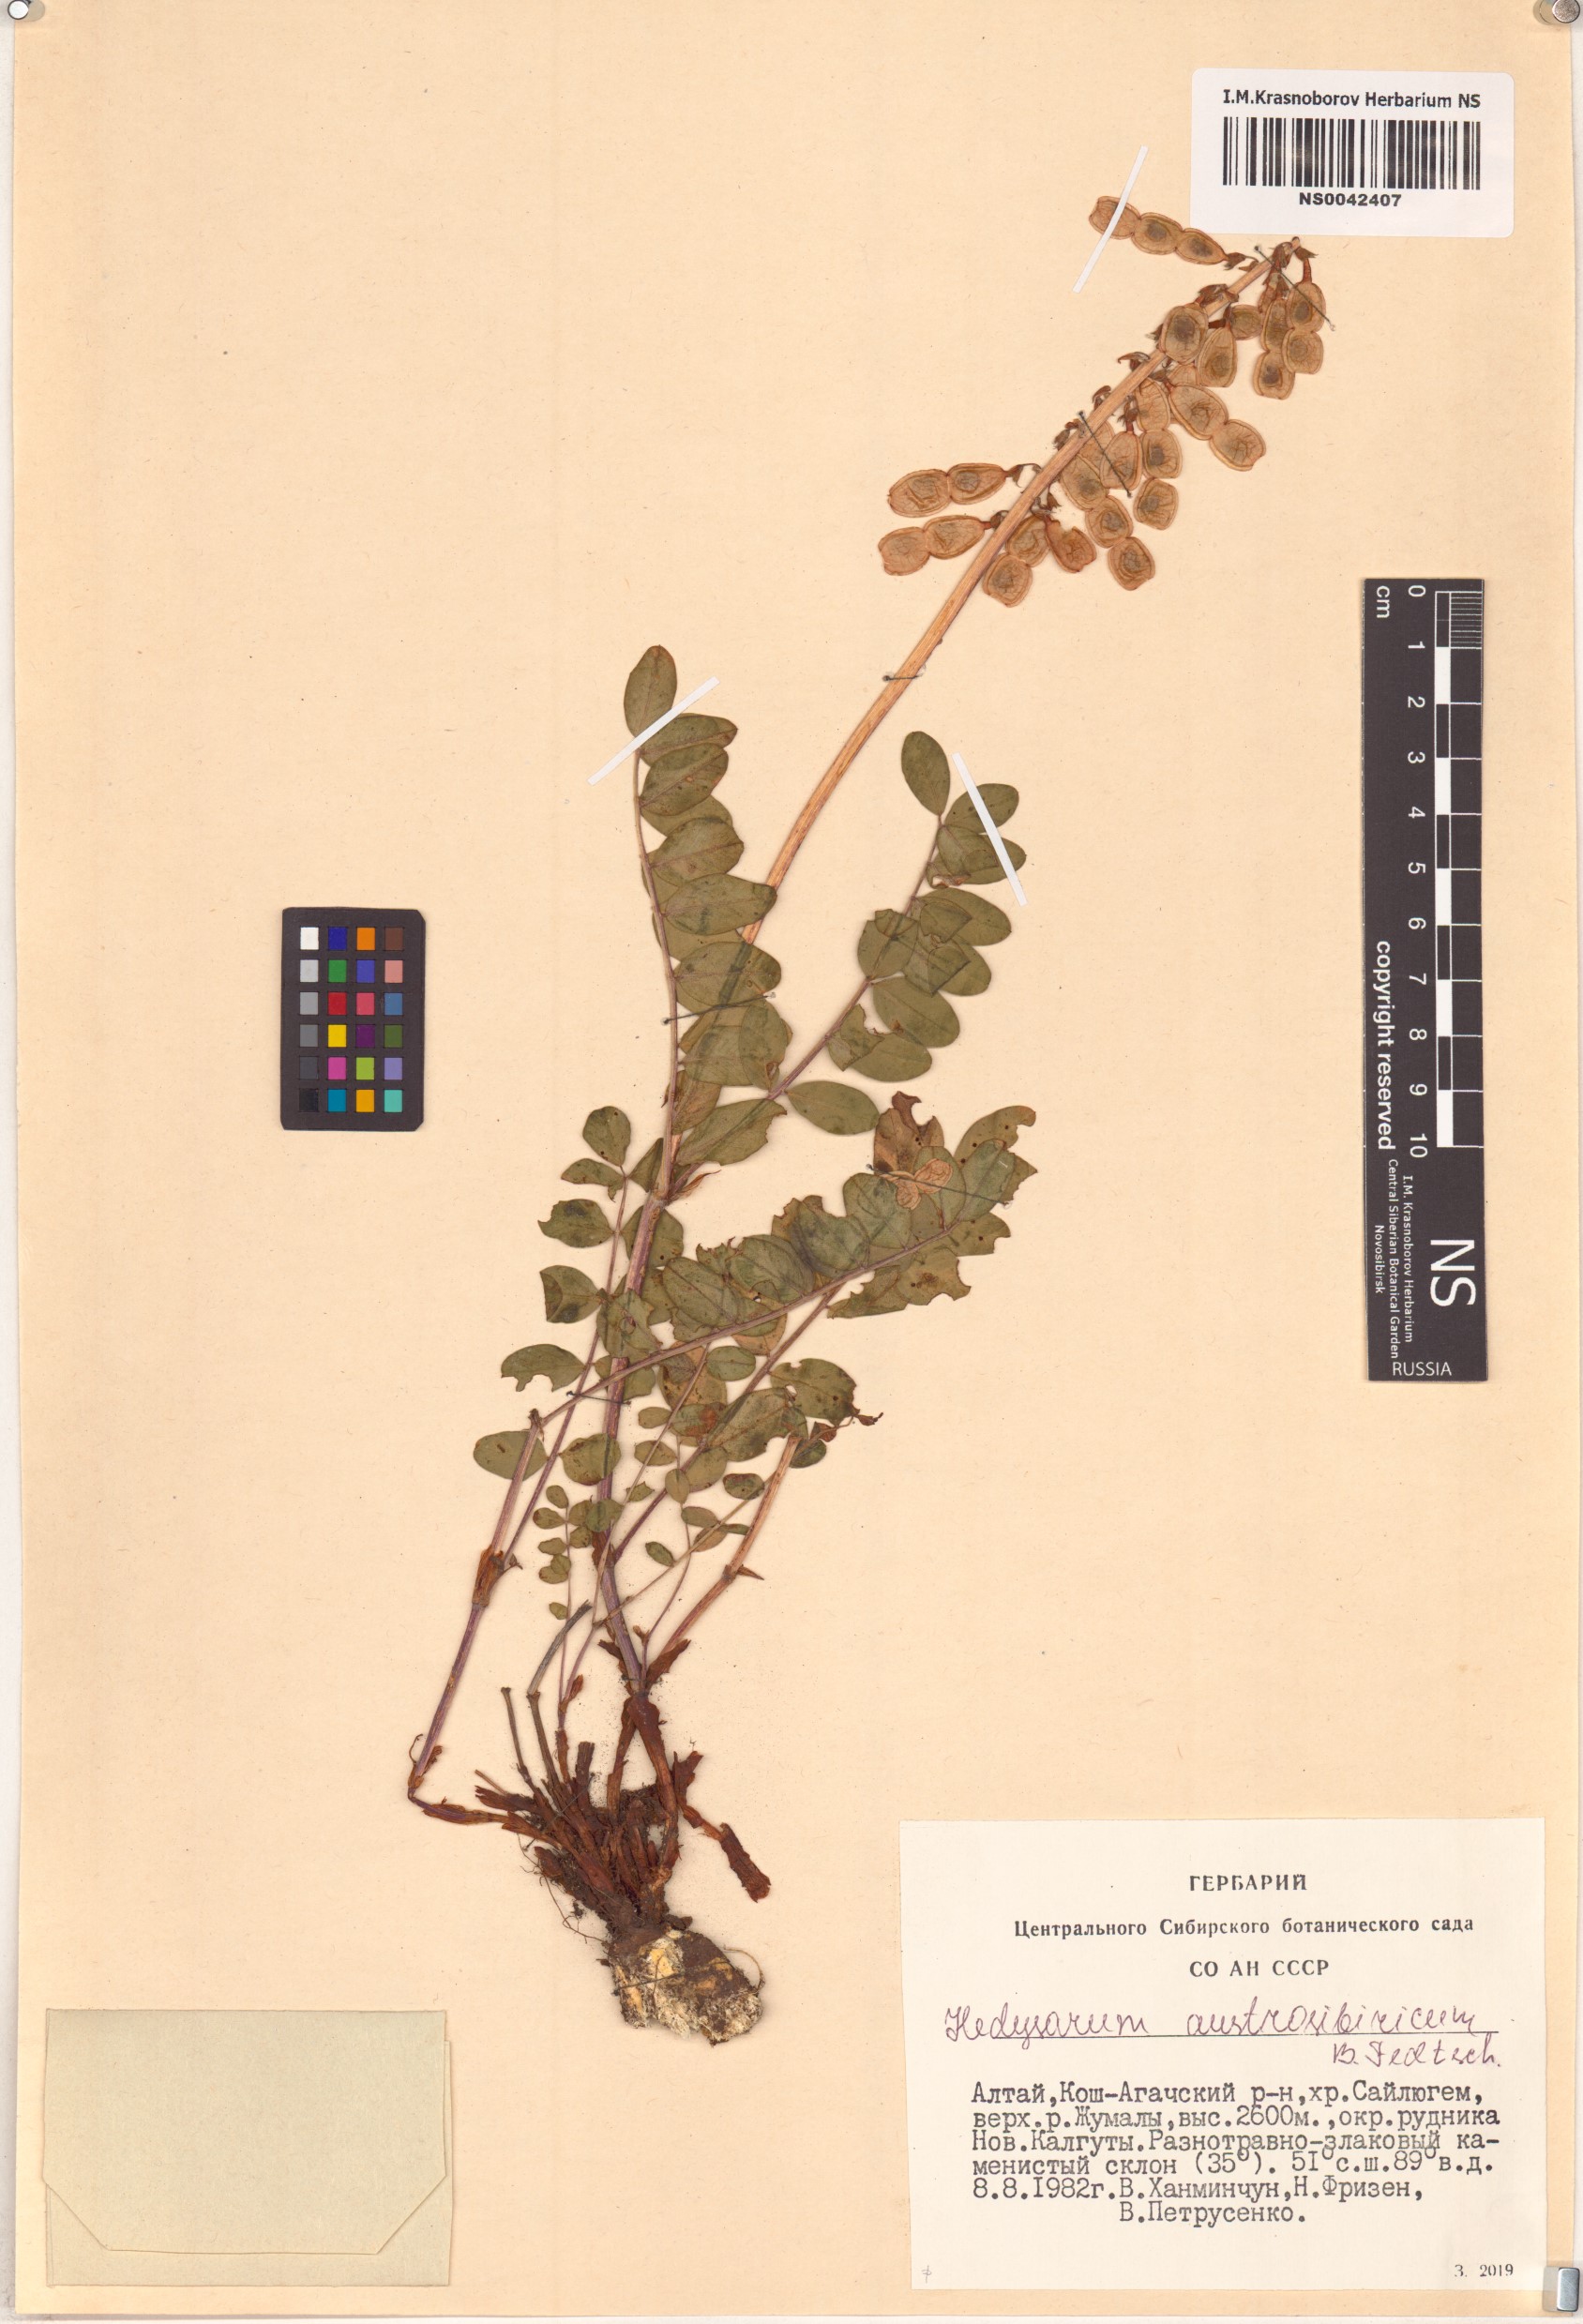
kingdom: Plantae
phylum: Tracheophyta
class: Magnoliopsida
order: Fabales
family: Fabaceae
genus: Hedysarum
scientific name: Hedysarum neglectum
